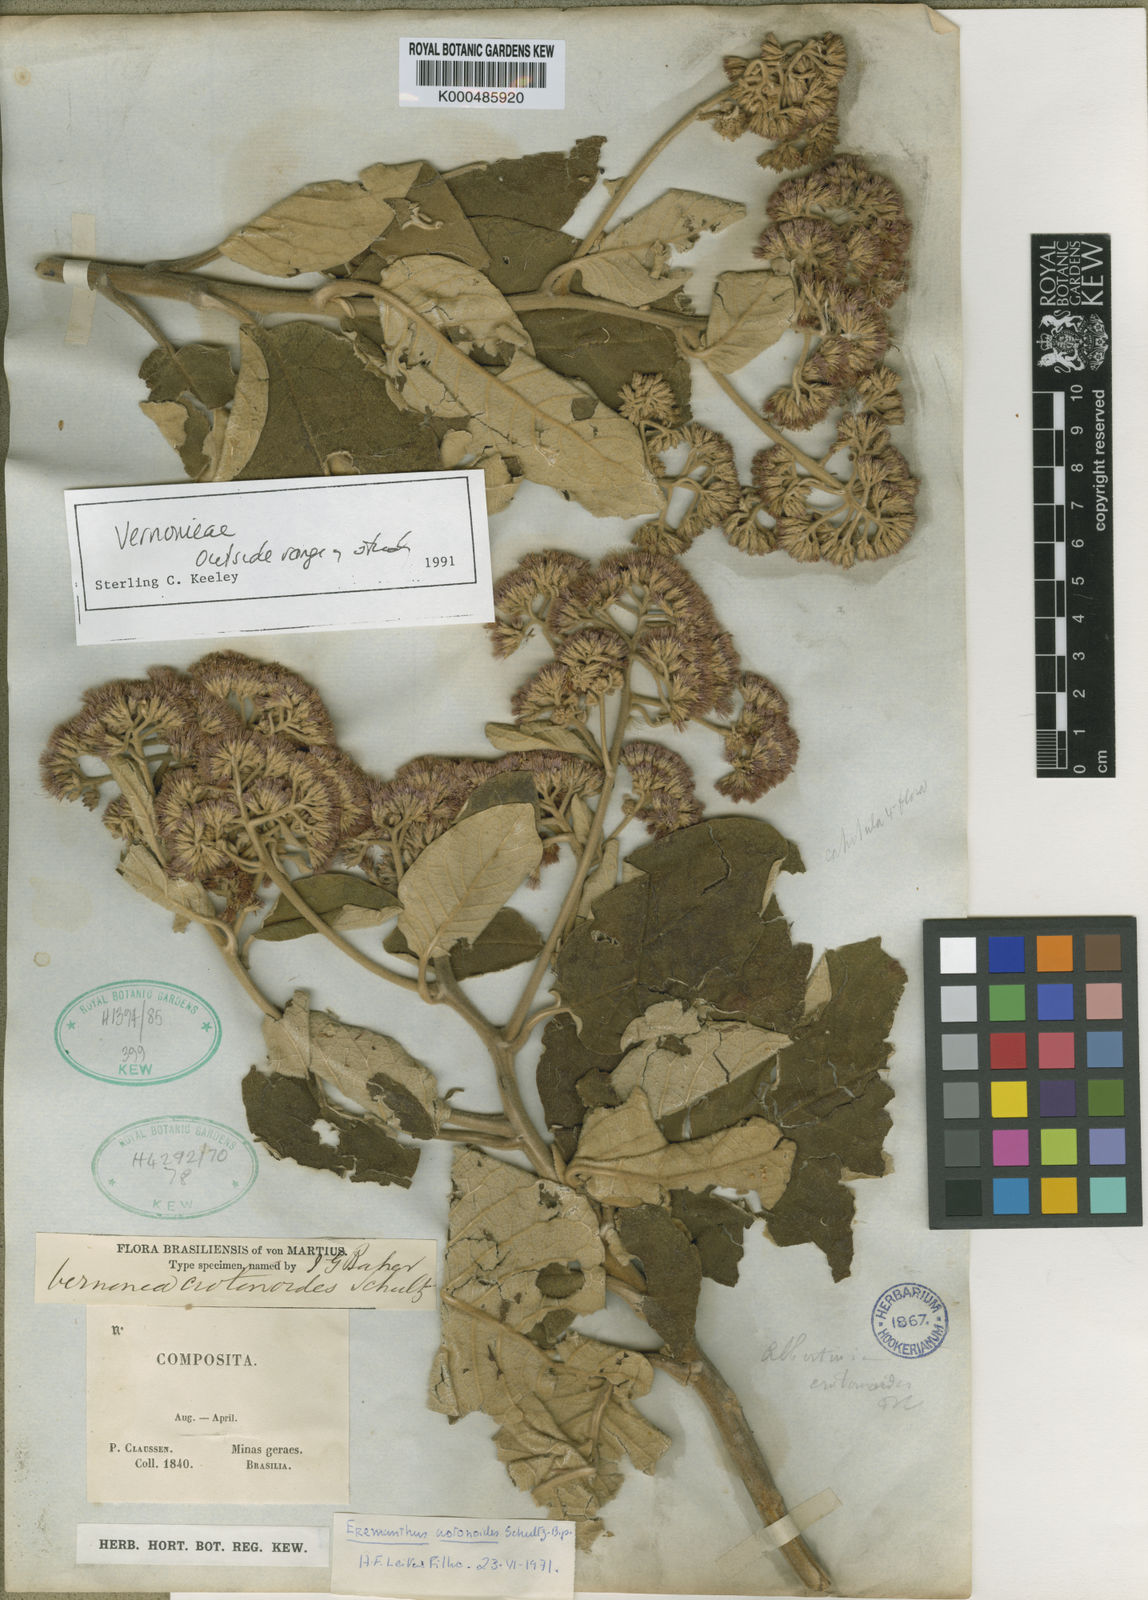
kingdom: Plantae
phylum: Tracheophyta
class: Magnoliopsida
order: Asterales
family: Asteraceae
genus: Eremanthus
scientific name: Eremanthus crotonoides
